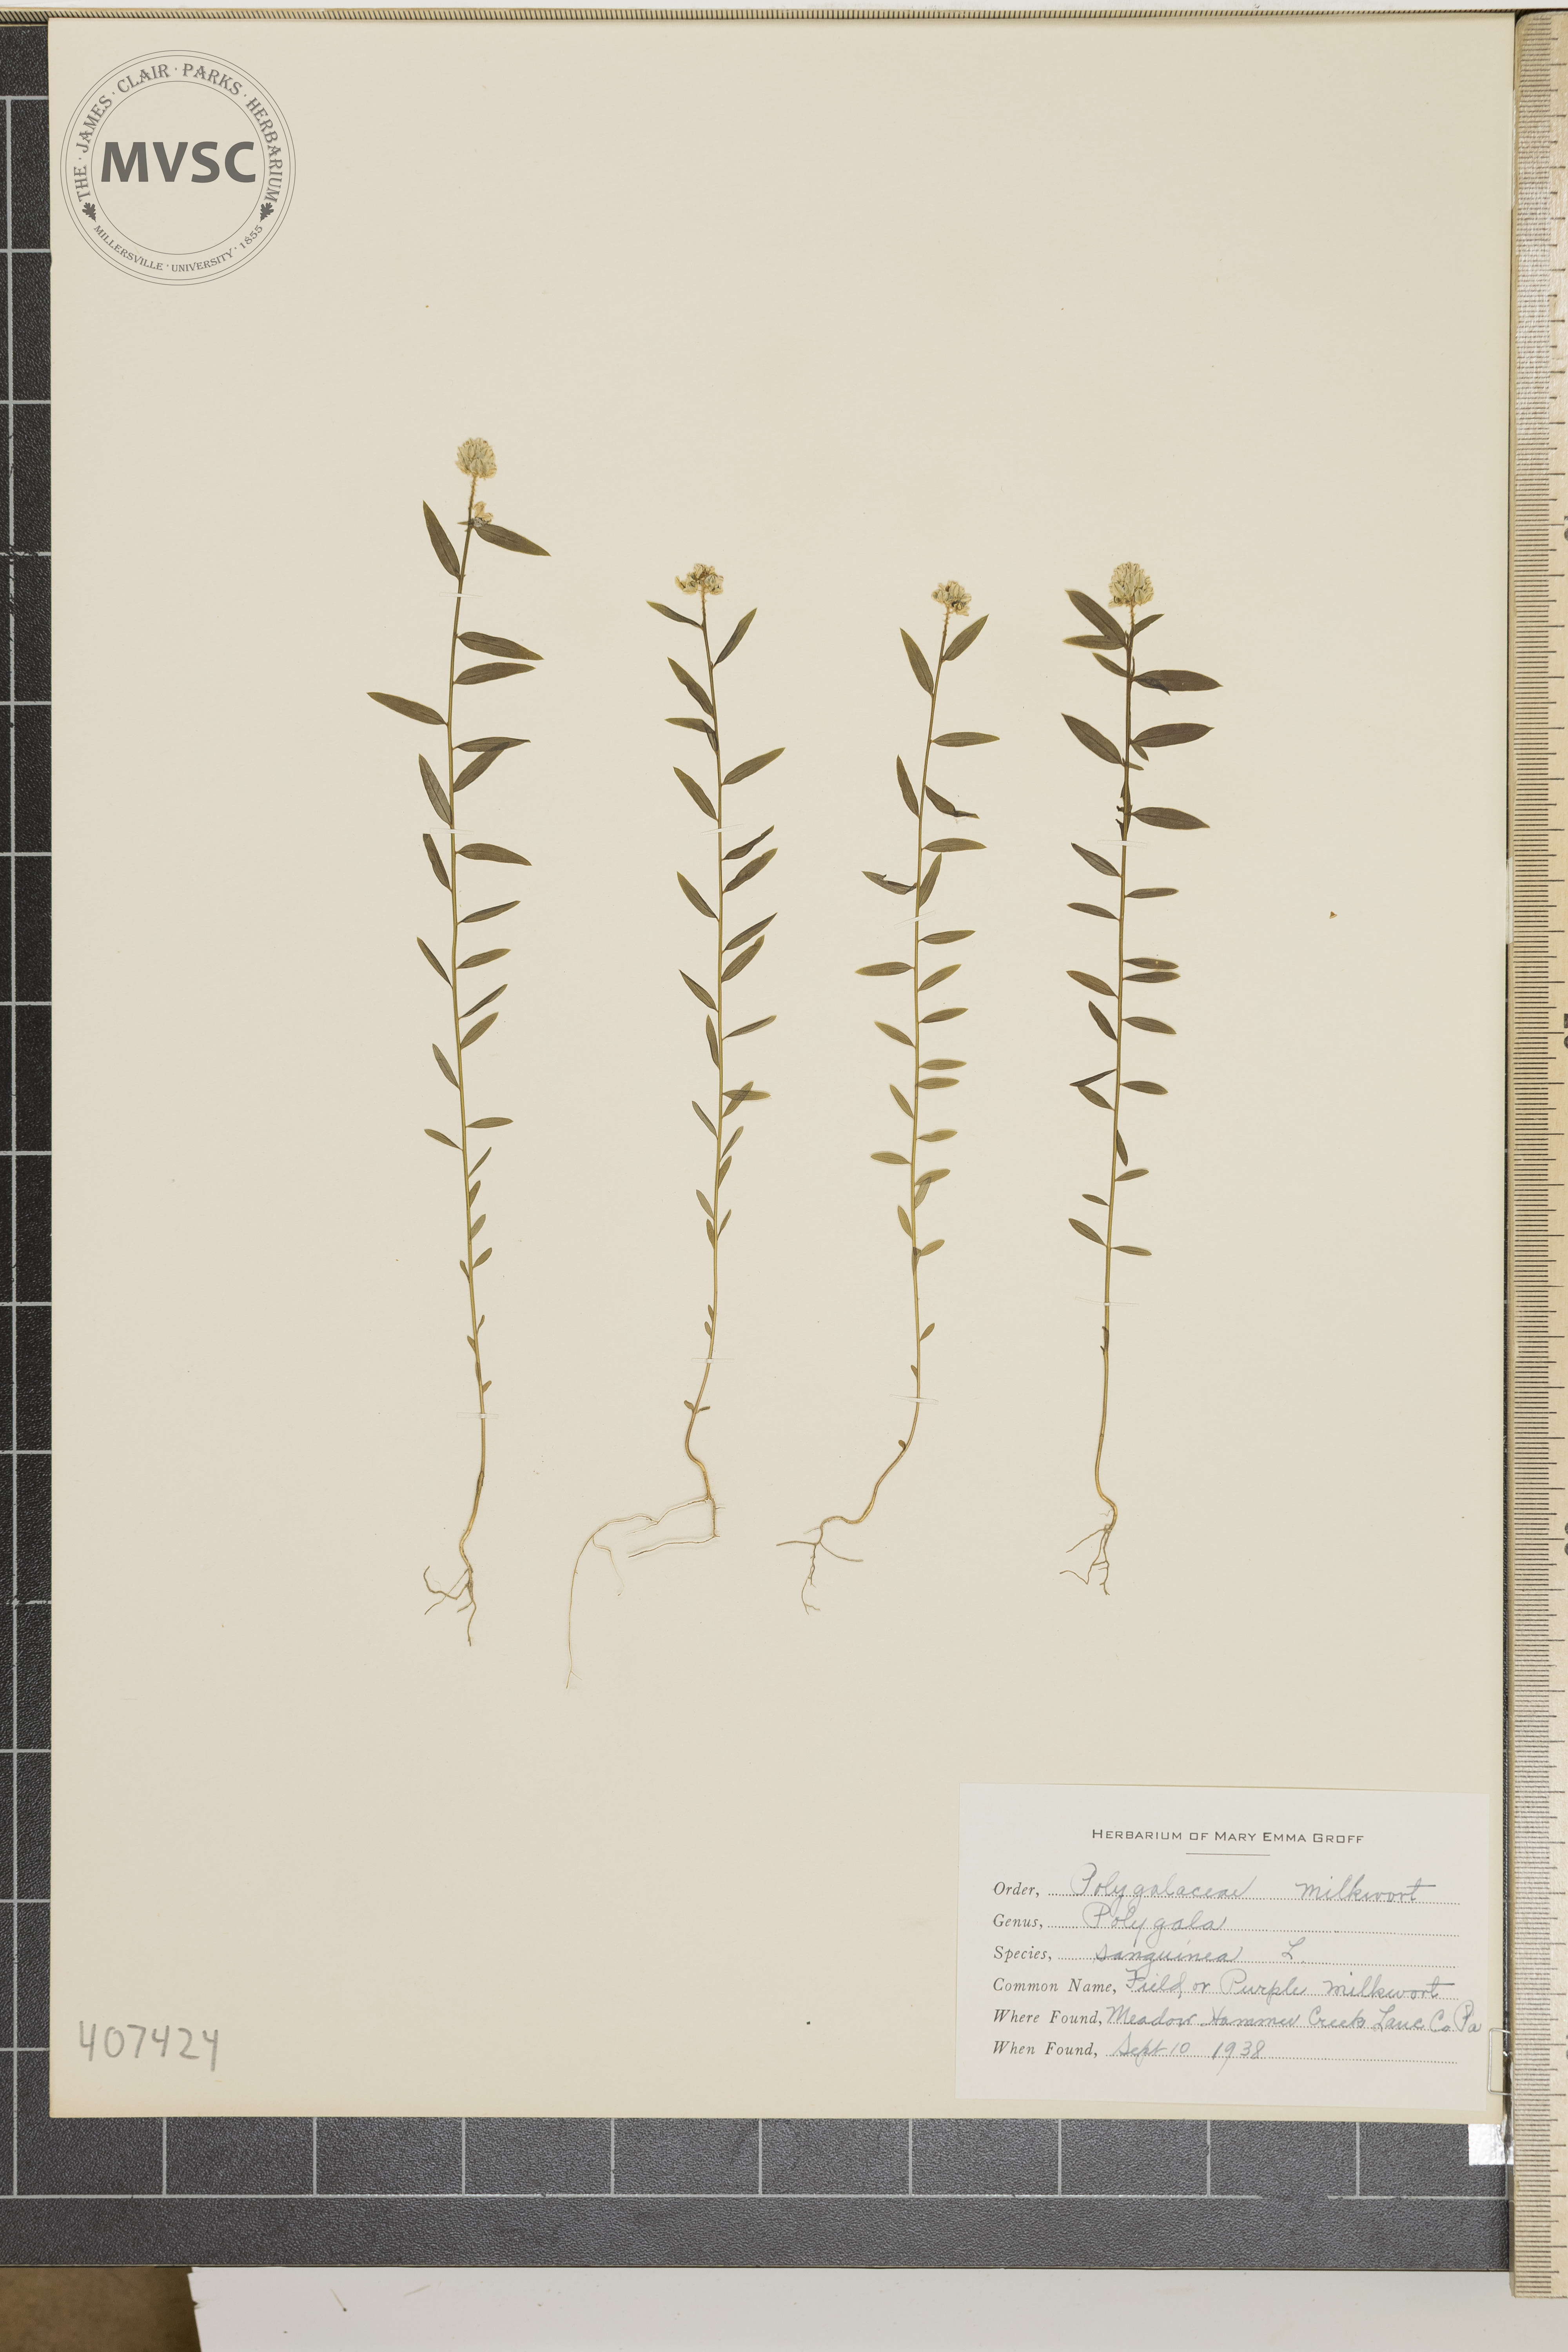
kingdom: Plantae
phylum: Tracheophyta
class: Magnoliopsida
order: Fabales
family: Polygalaceae
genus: Polygala
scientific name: Polygala sanguinea
